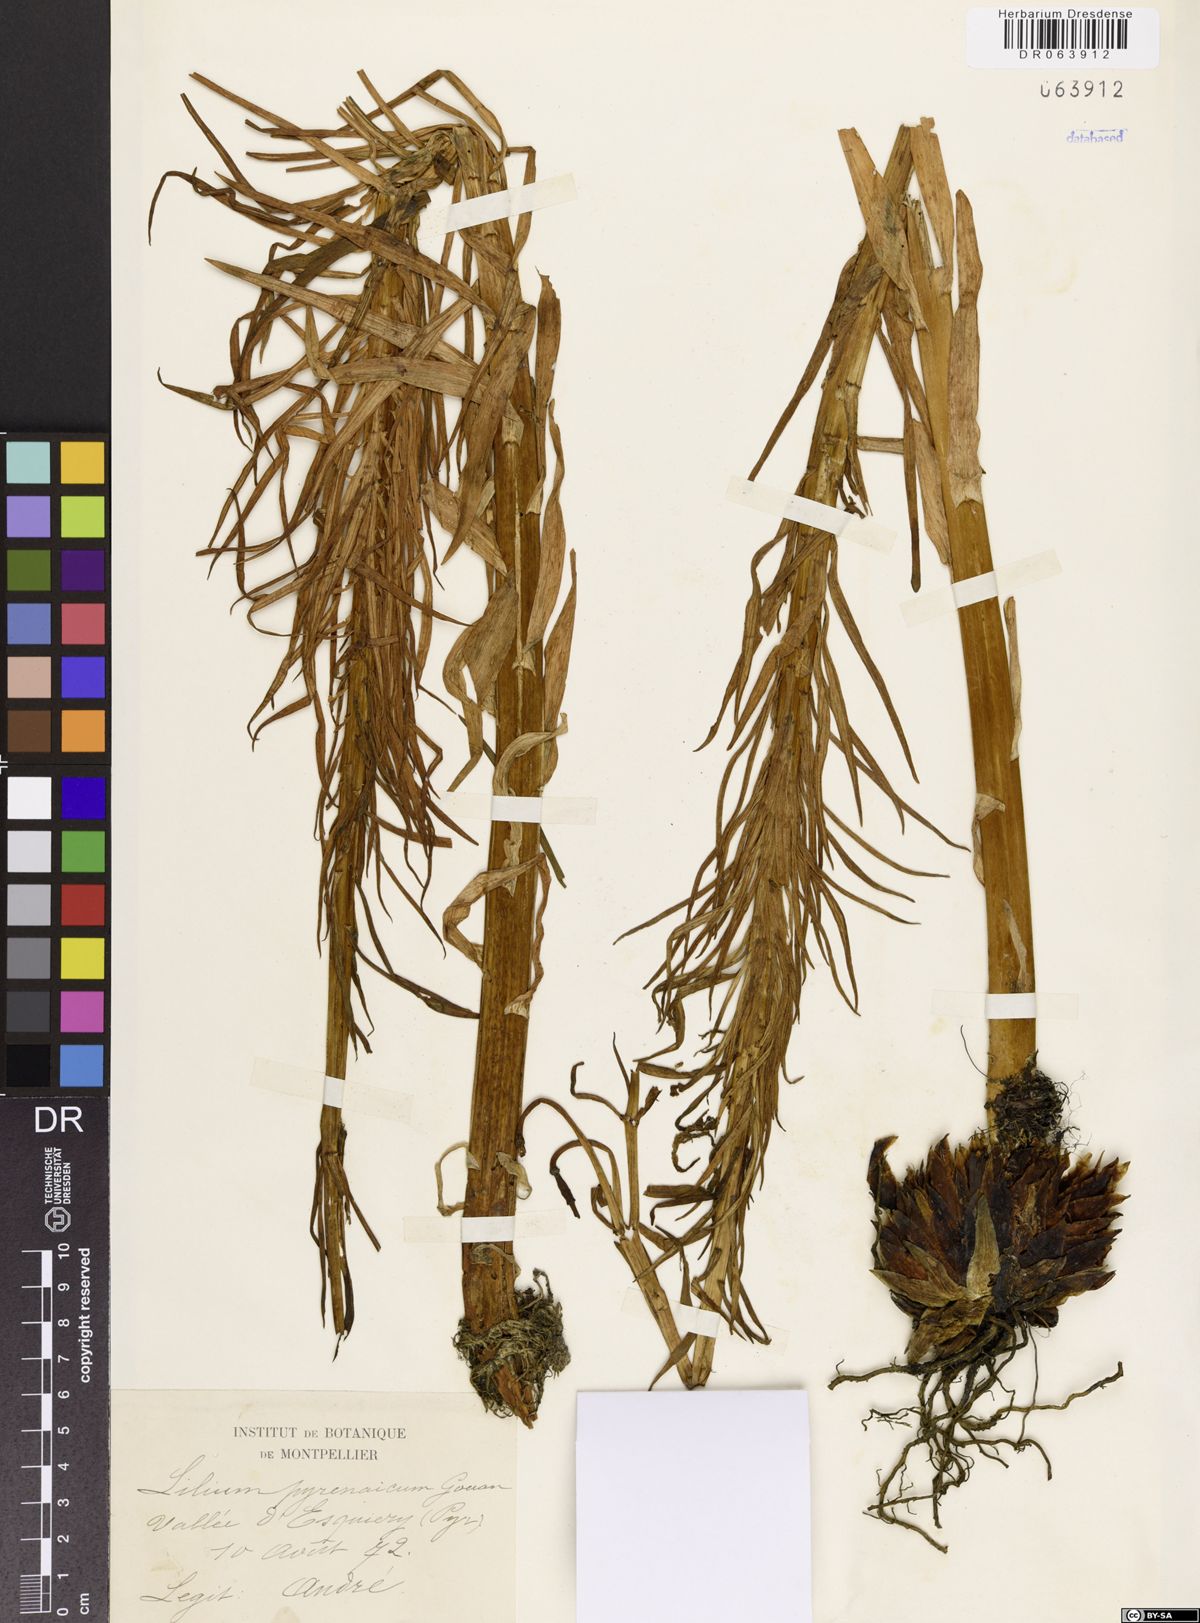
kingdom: Plantae
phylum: Tracheophyta
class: Liliopsida
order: Liliales
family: Liliaceae
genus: Lilium
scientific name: Lilium pyrenaicum
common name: Pyrenean lily
